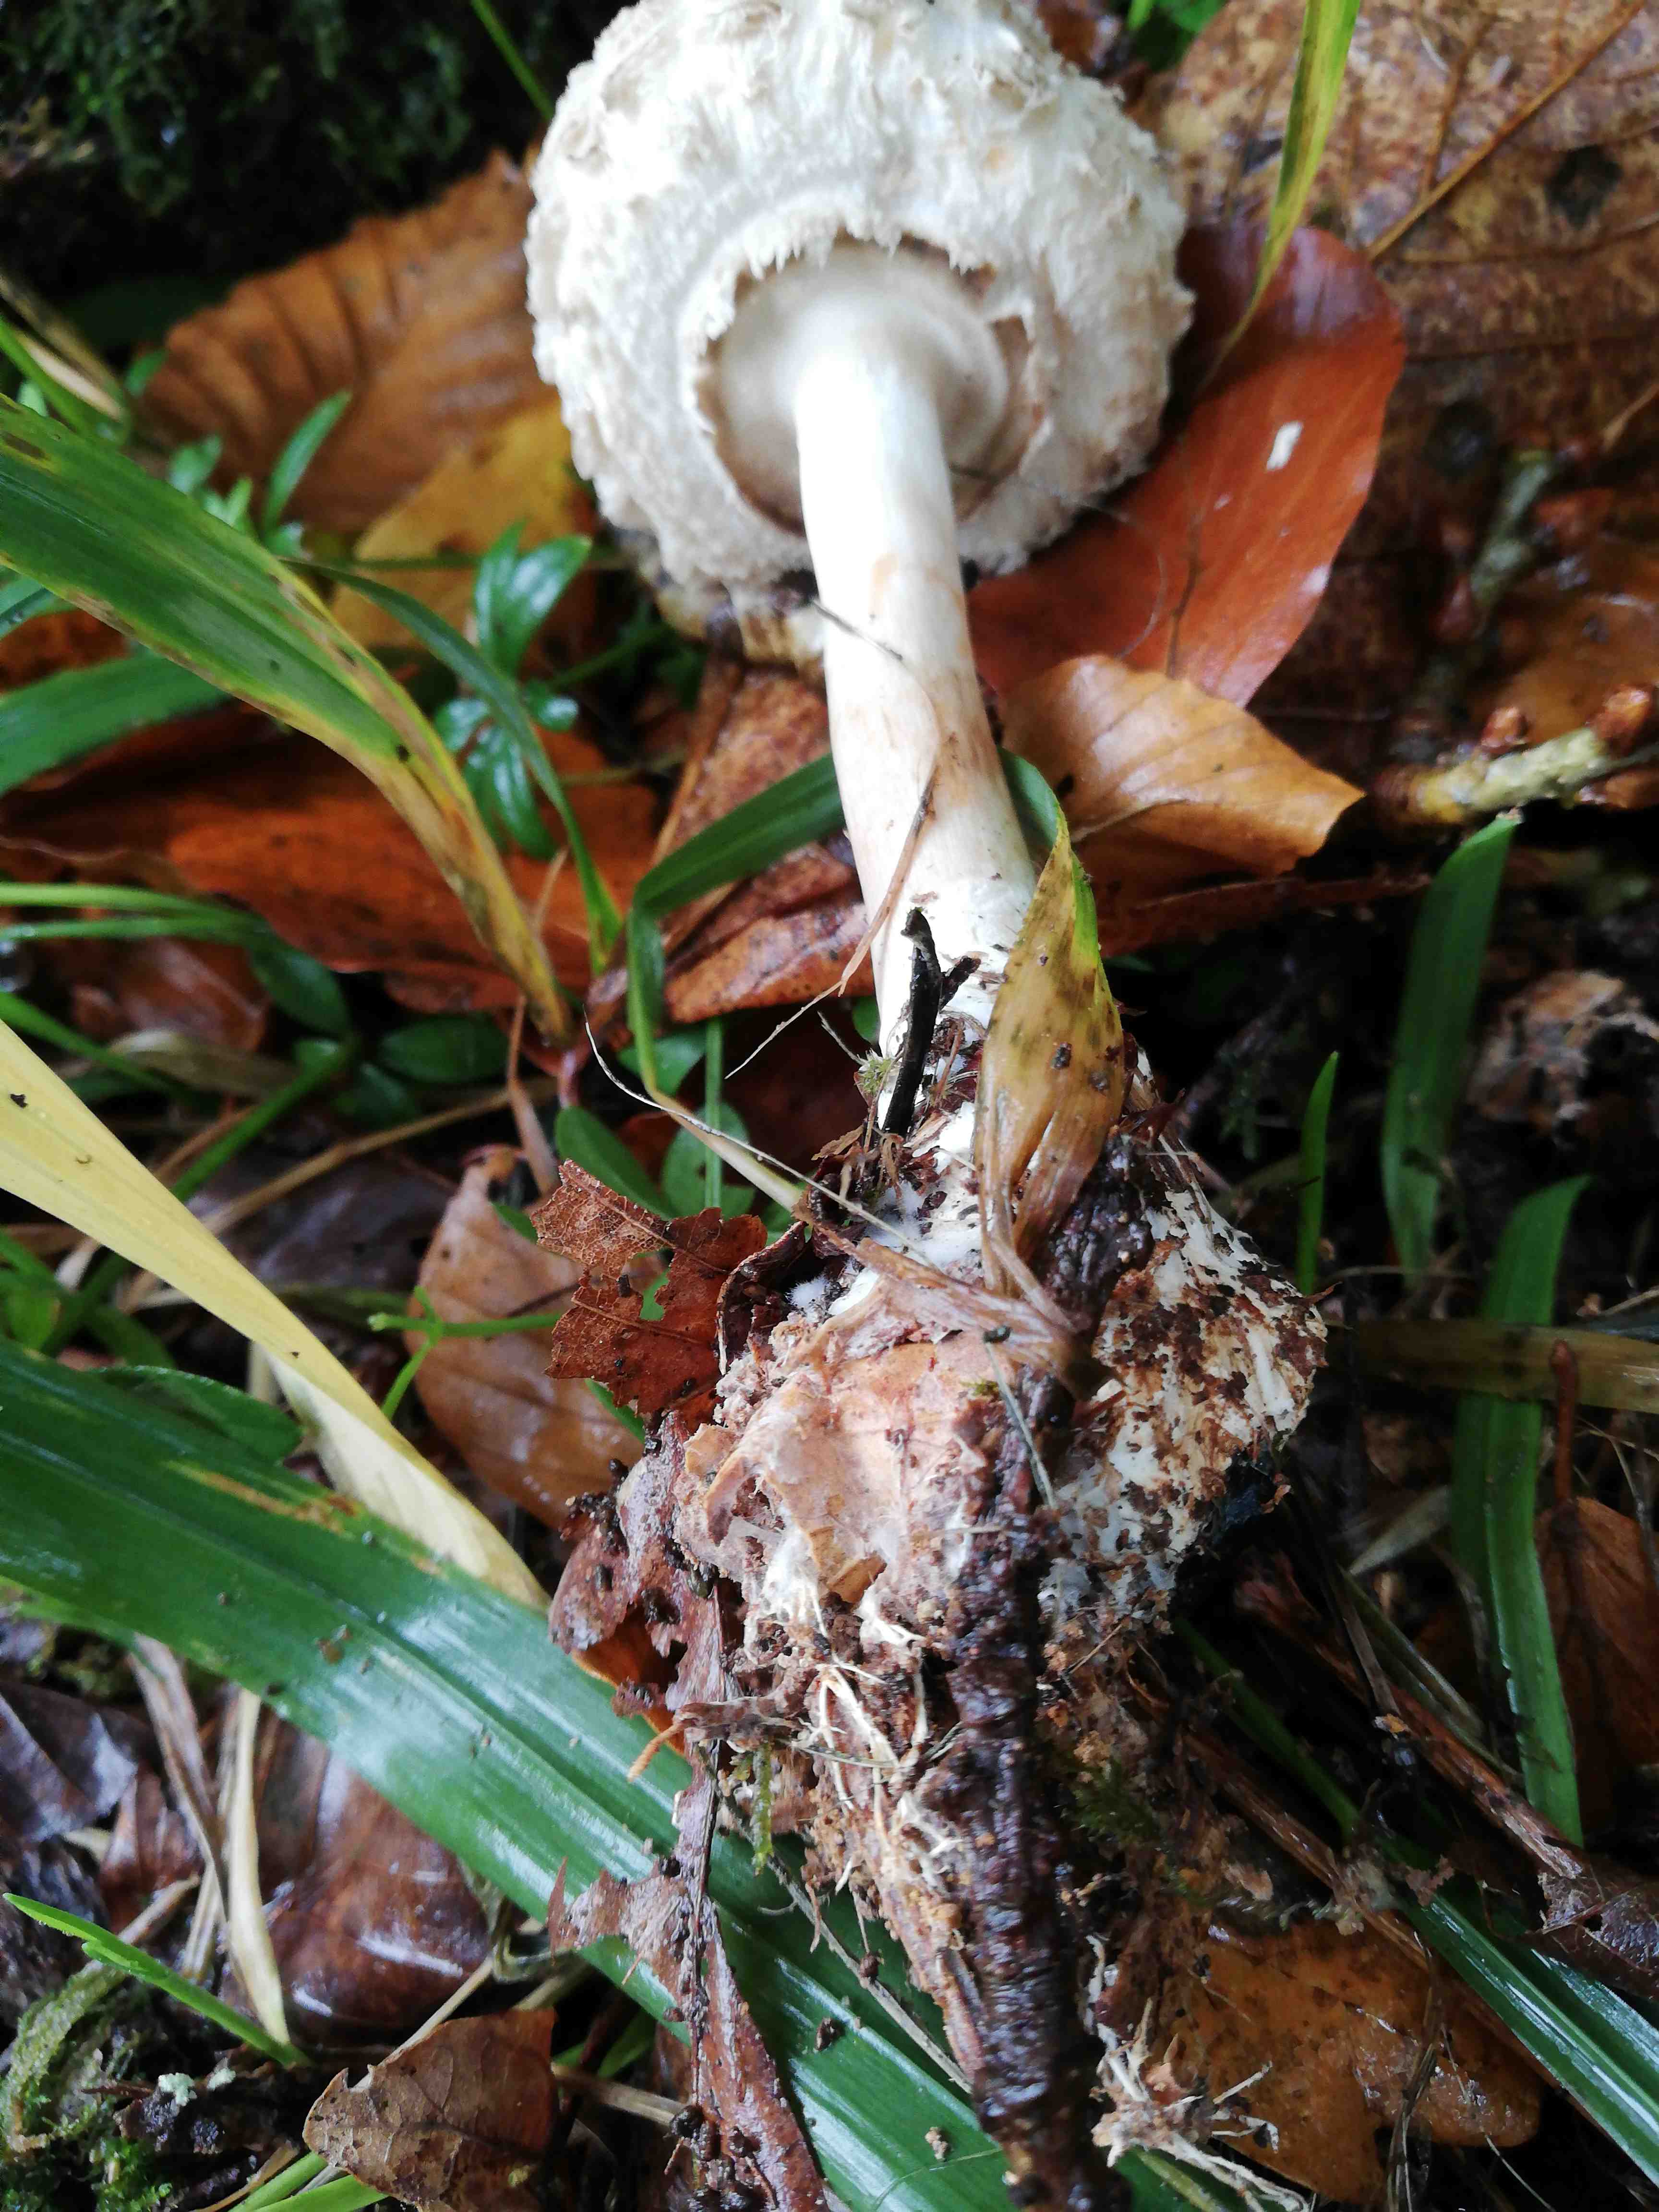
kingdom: Fungi
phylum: Basidiomycota
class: Agaricomycetes
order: Agaricales
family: Agaricaceae
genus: Chlorophyllum
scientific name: Chlorophyllum rhacodes
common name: ægte rabarberhat
